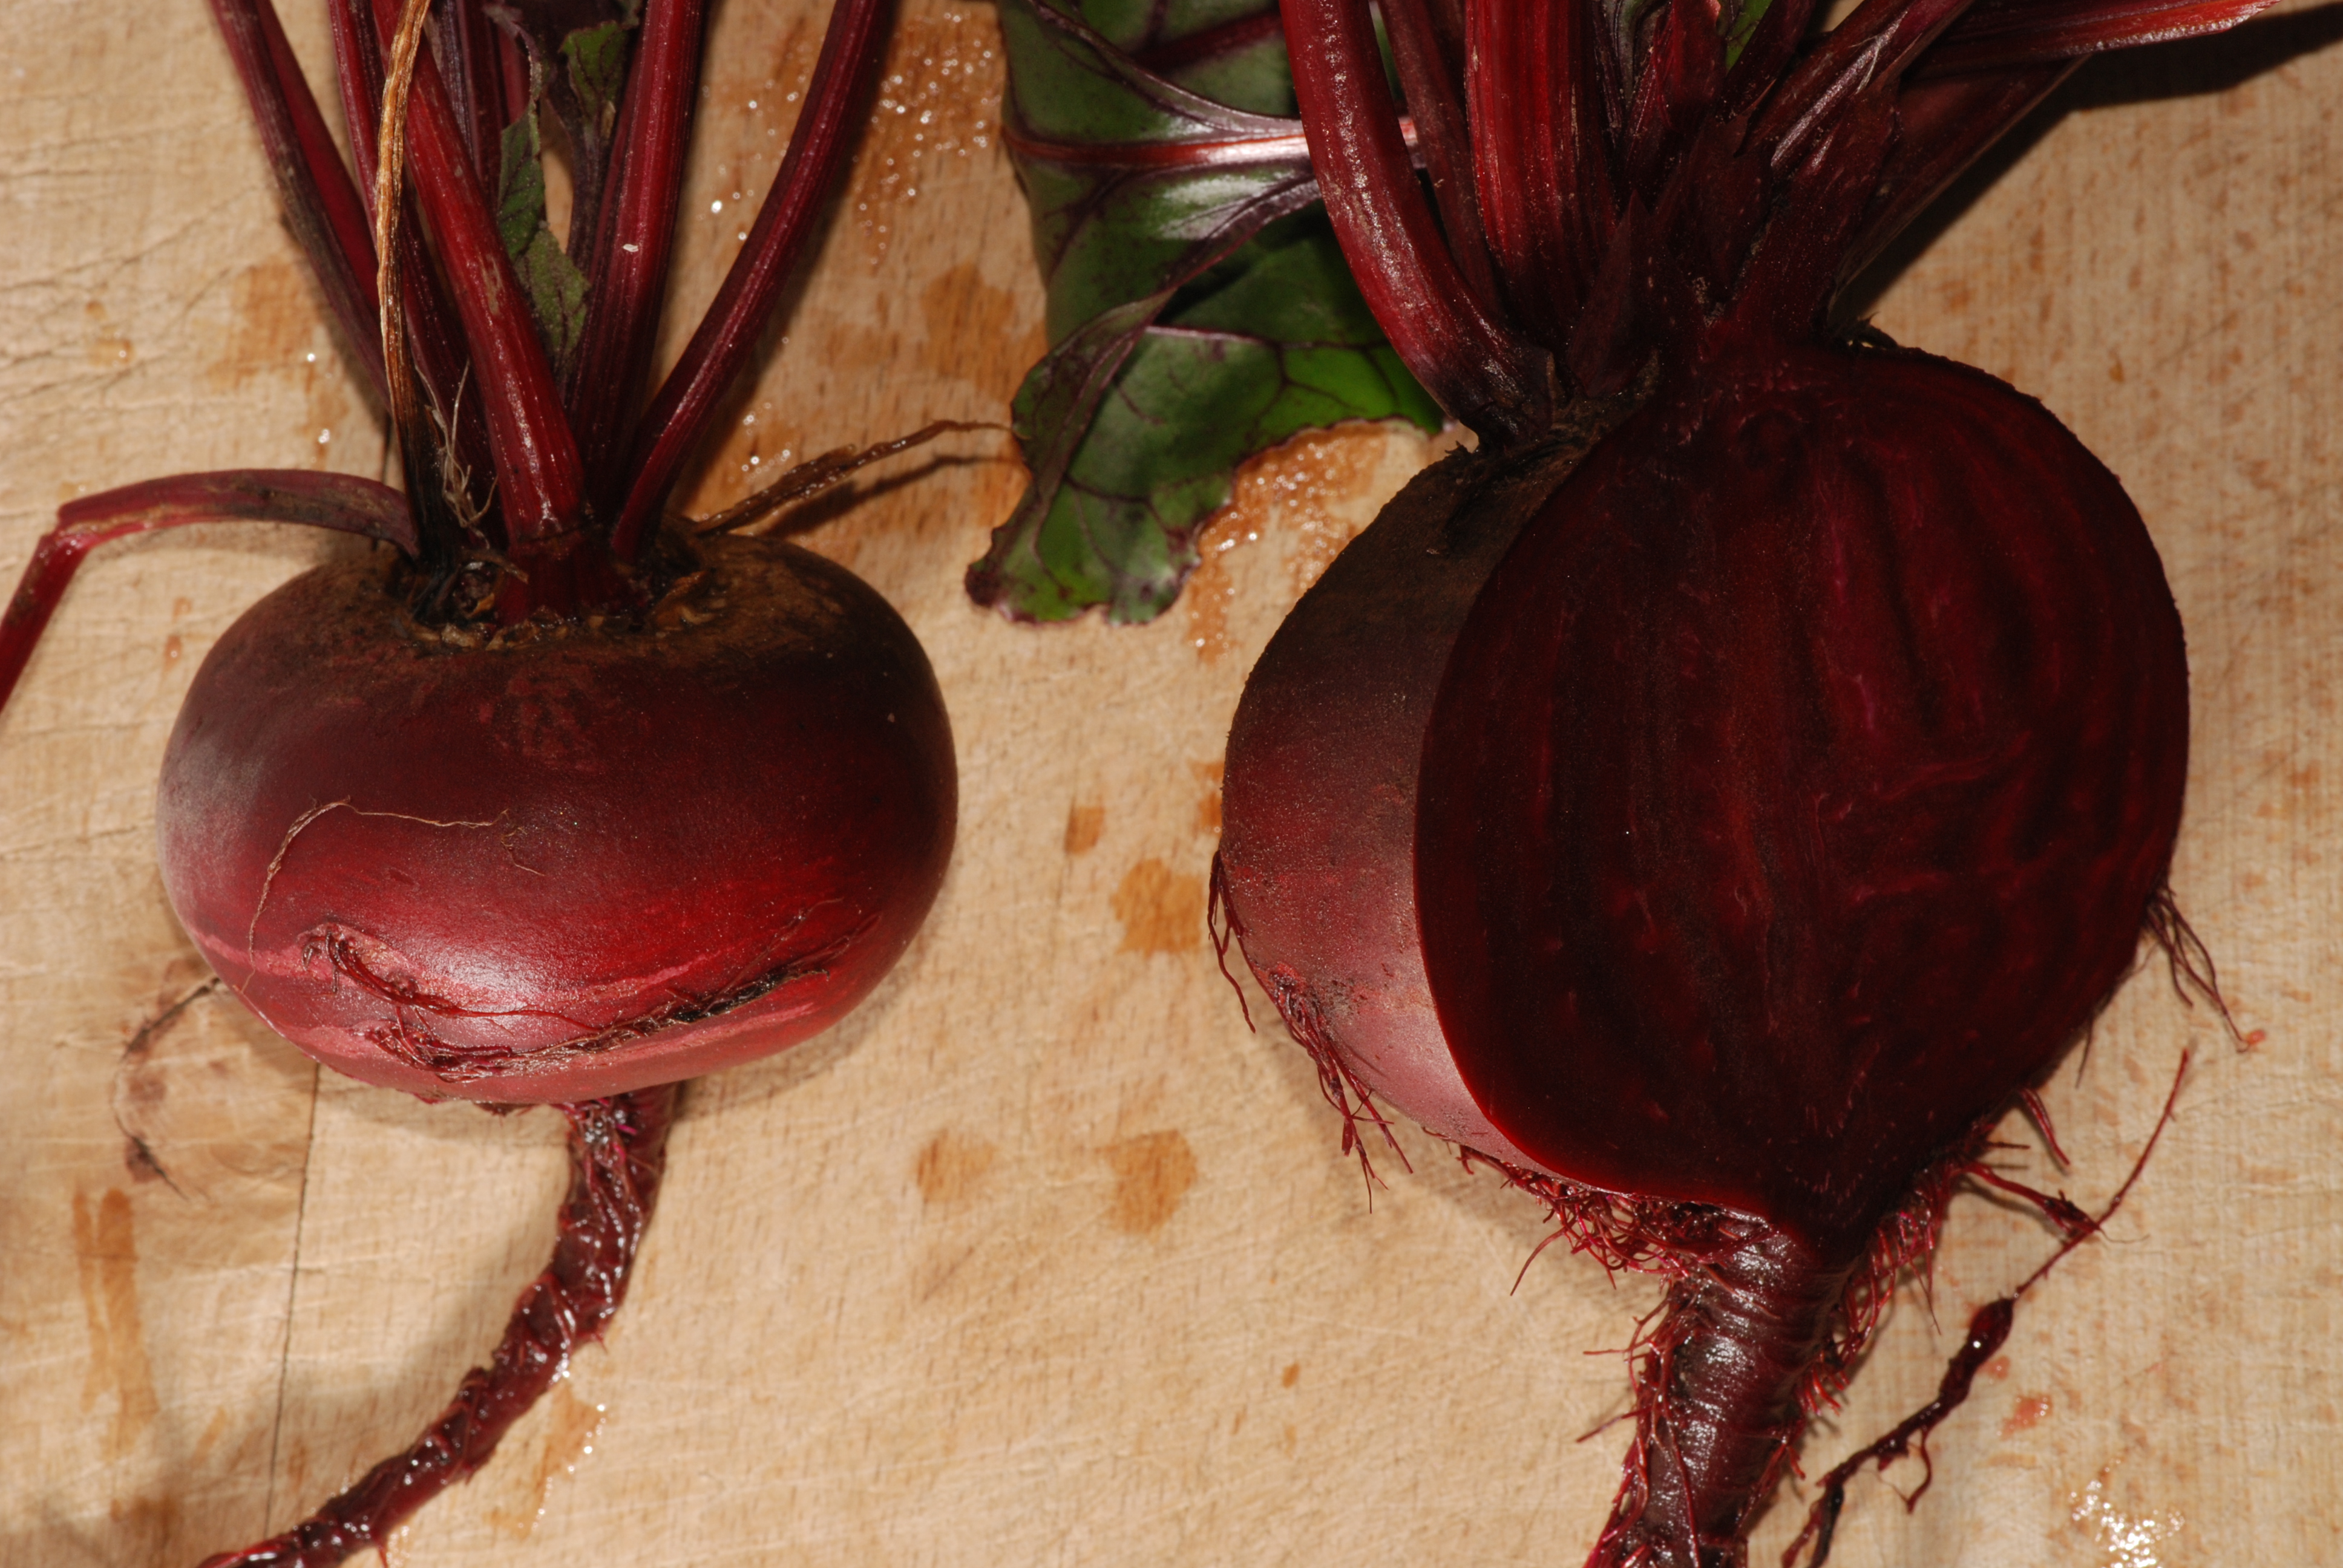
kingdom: Plantae
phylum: Tracheophyta
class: Magnoliopsida
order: Caryophyllales
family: Amaranthaceae
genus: Beta
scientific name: Beta vulgaris
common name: Beet
